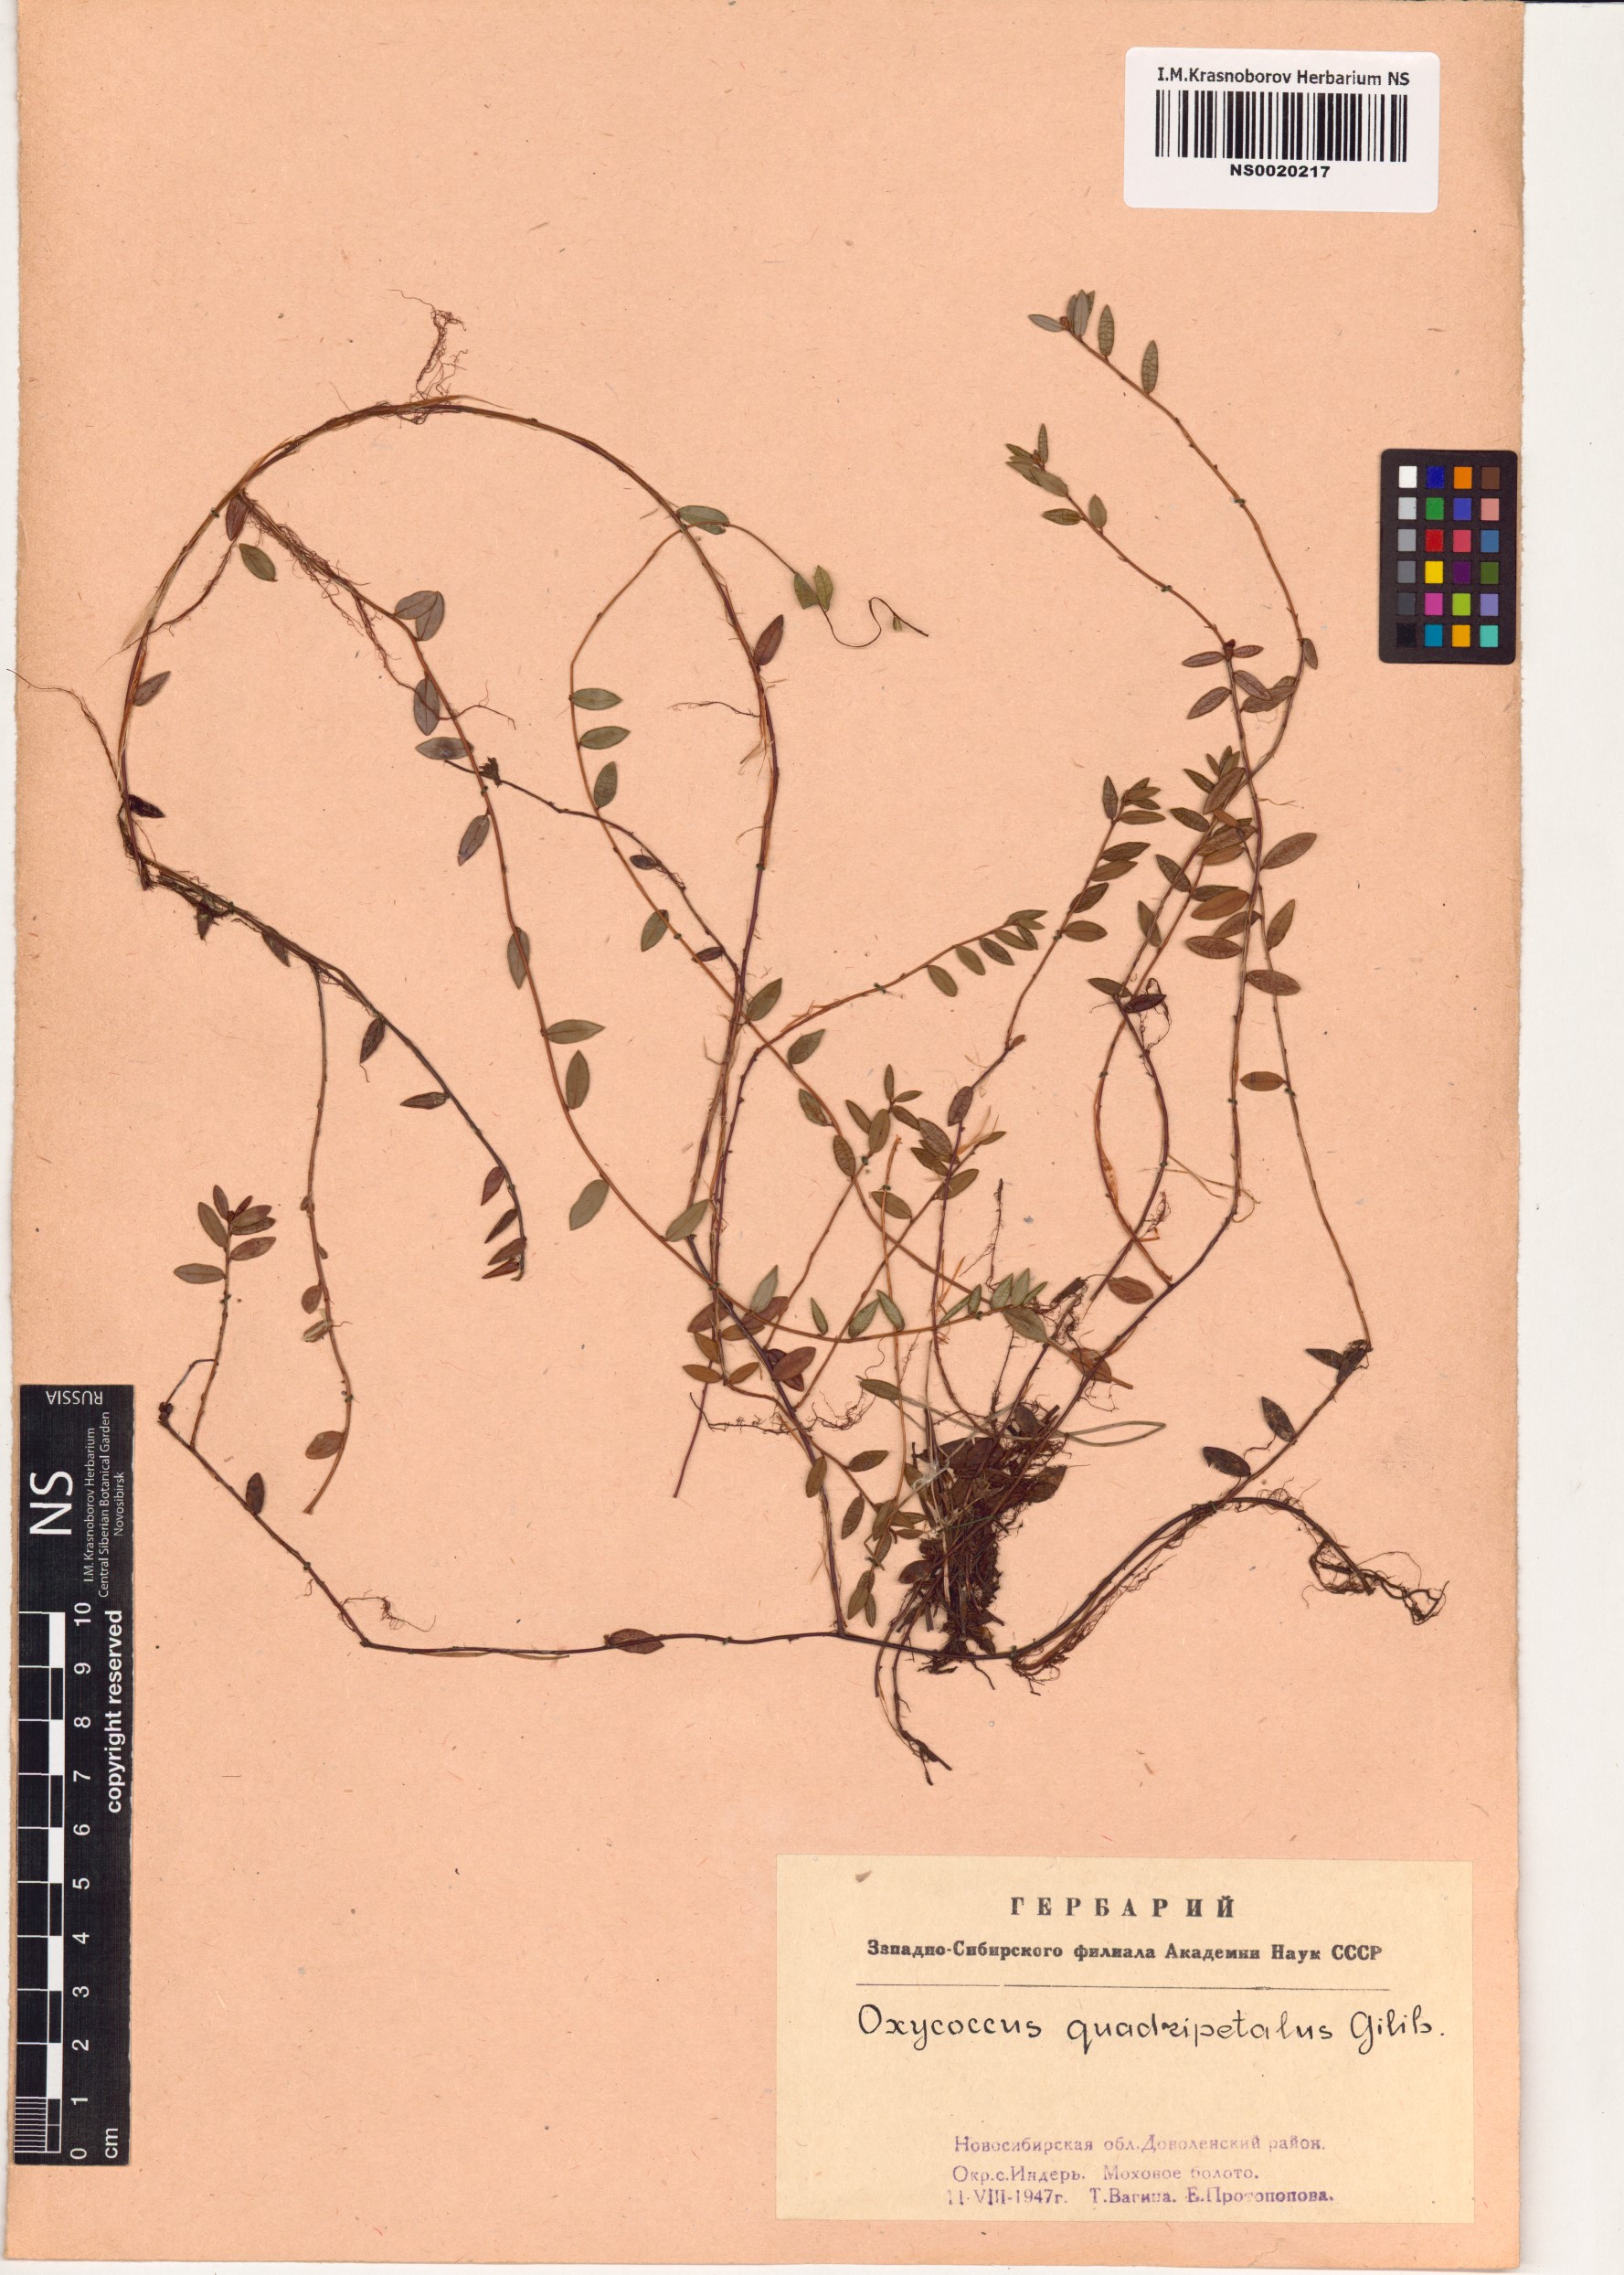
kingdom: Plantae
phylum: Tracheophyta
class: Magnoliopsida
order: Ericales
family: Ericaceae
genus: Vaccinium
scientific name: Vaccinium oxycoccos
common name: Cranberry
